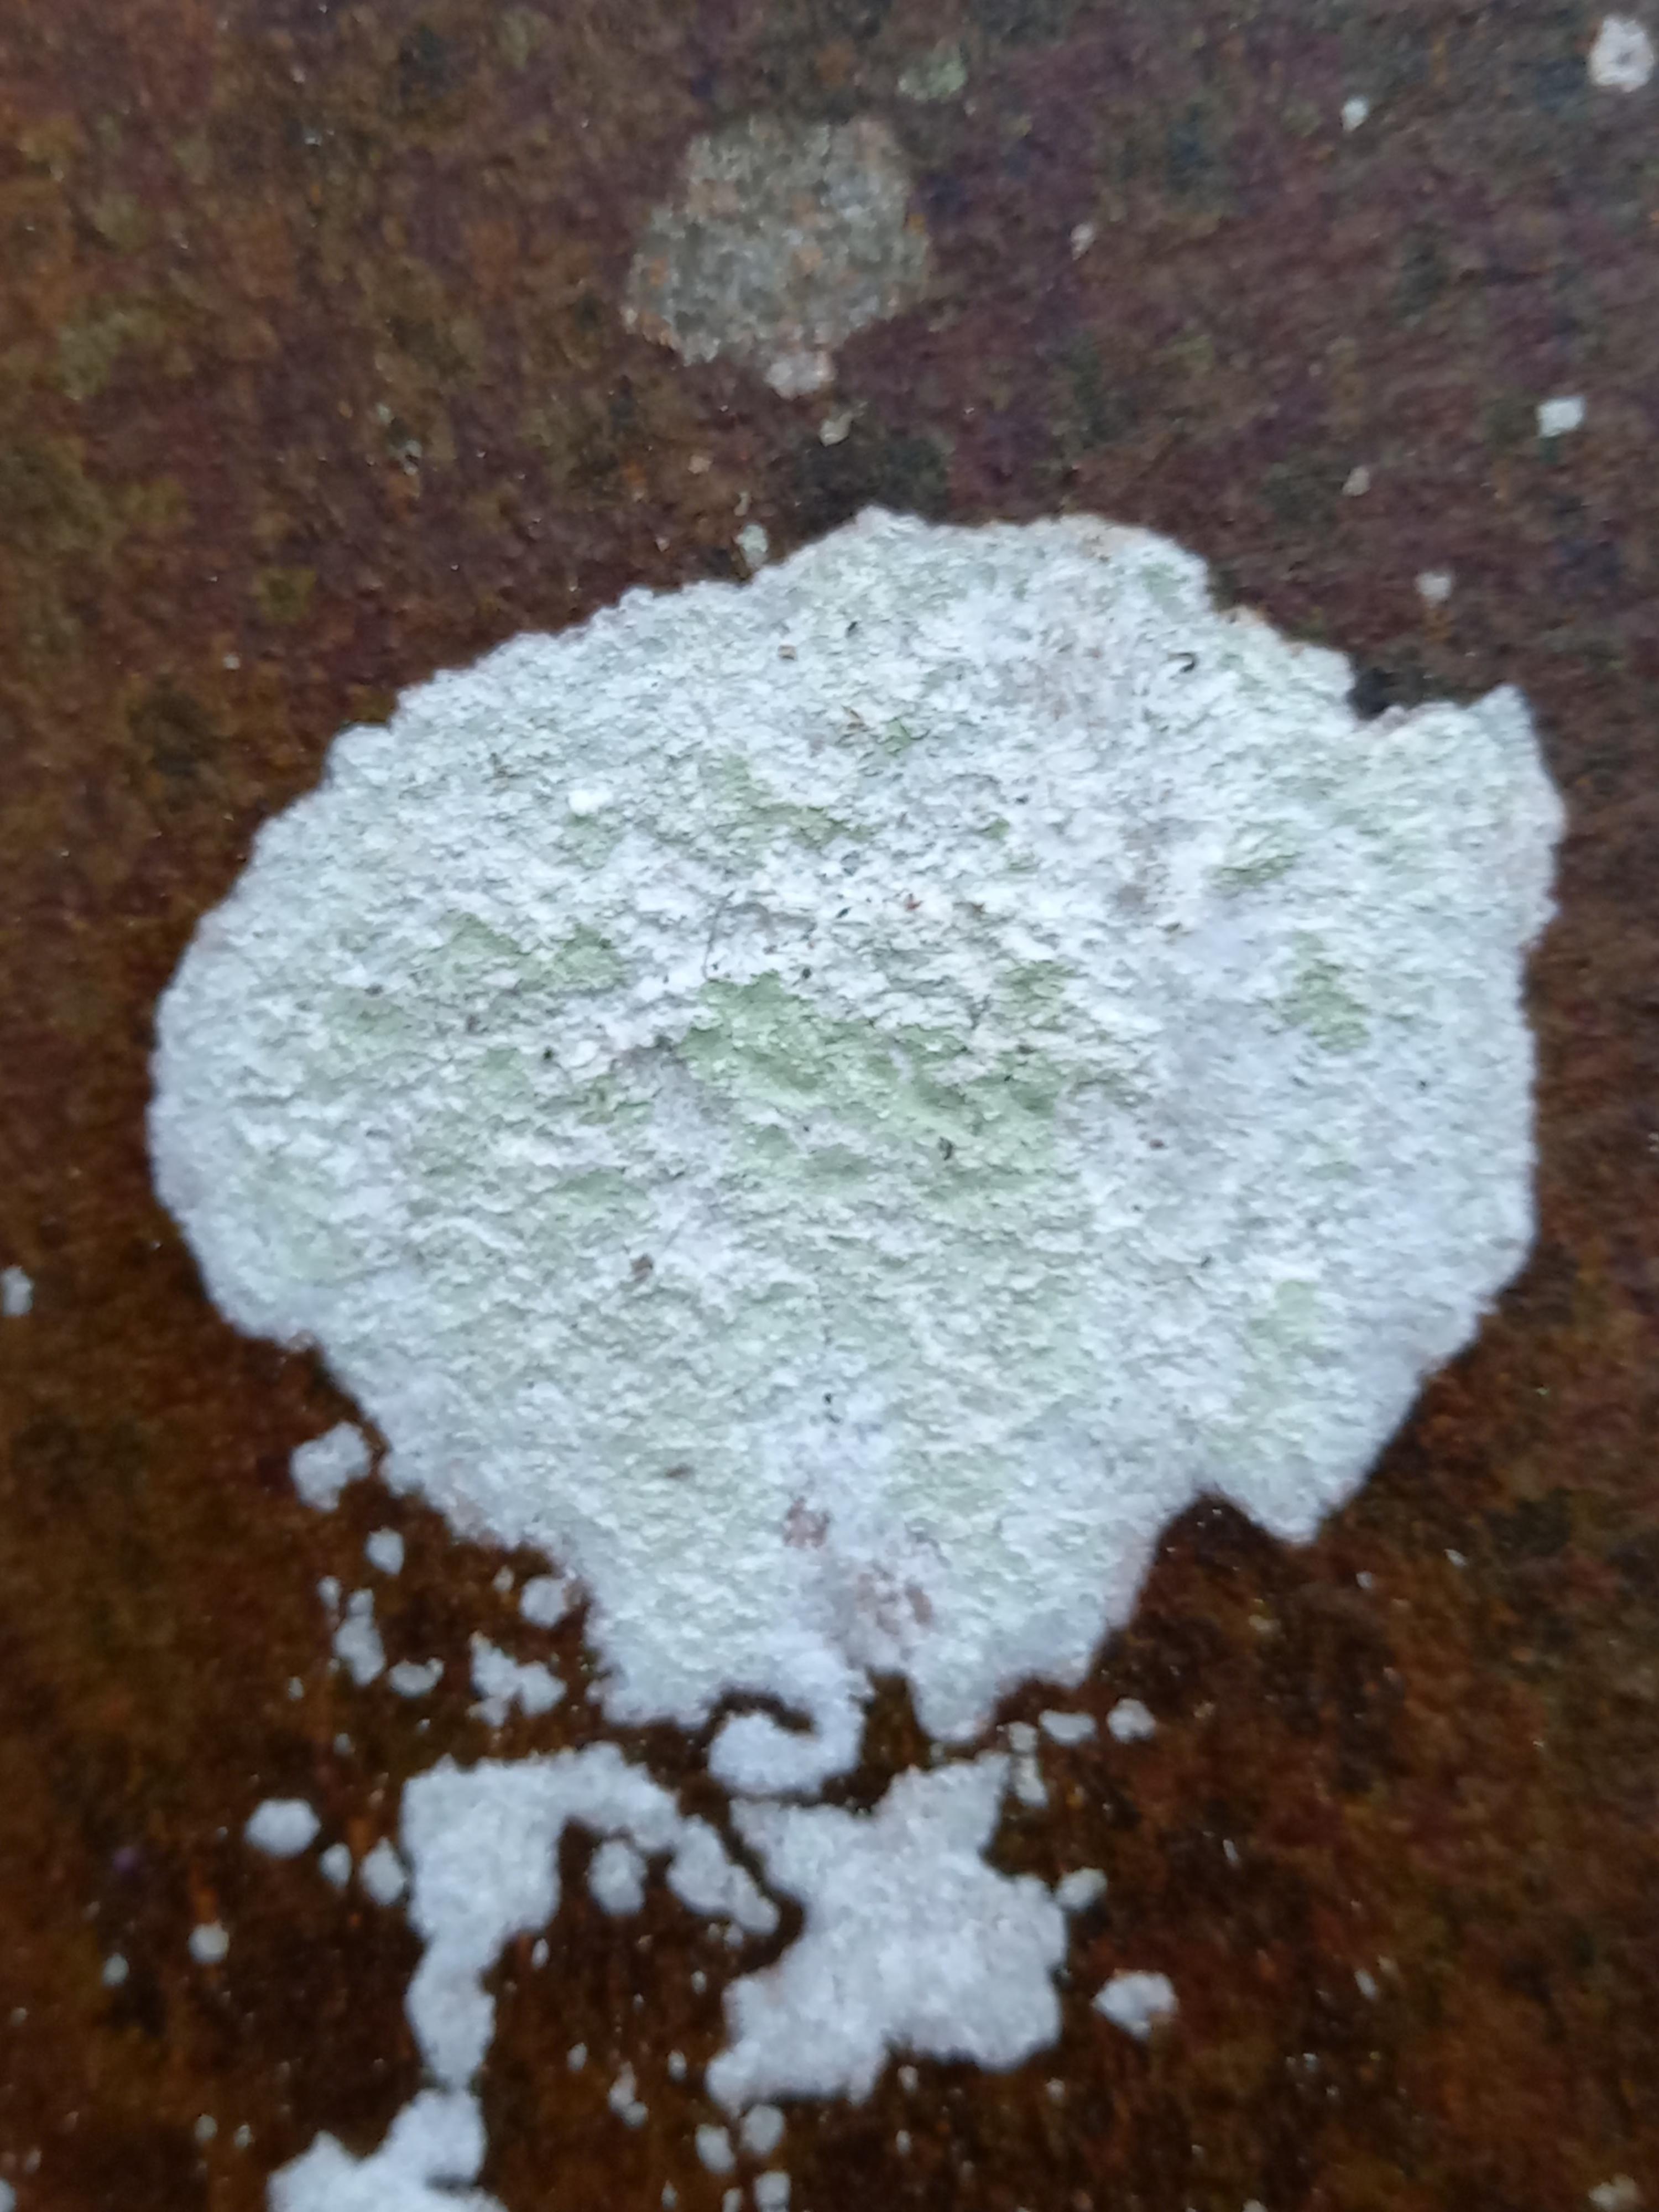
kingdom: Fungi
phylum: Ascomycota
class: Lecanoromycetes
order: Ostropales
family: Phlyctidaceae
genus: Phlyctis
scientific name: Phlyctis argena
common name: almindelig sølvlav
